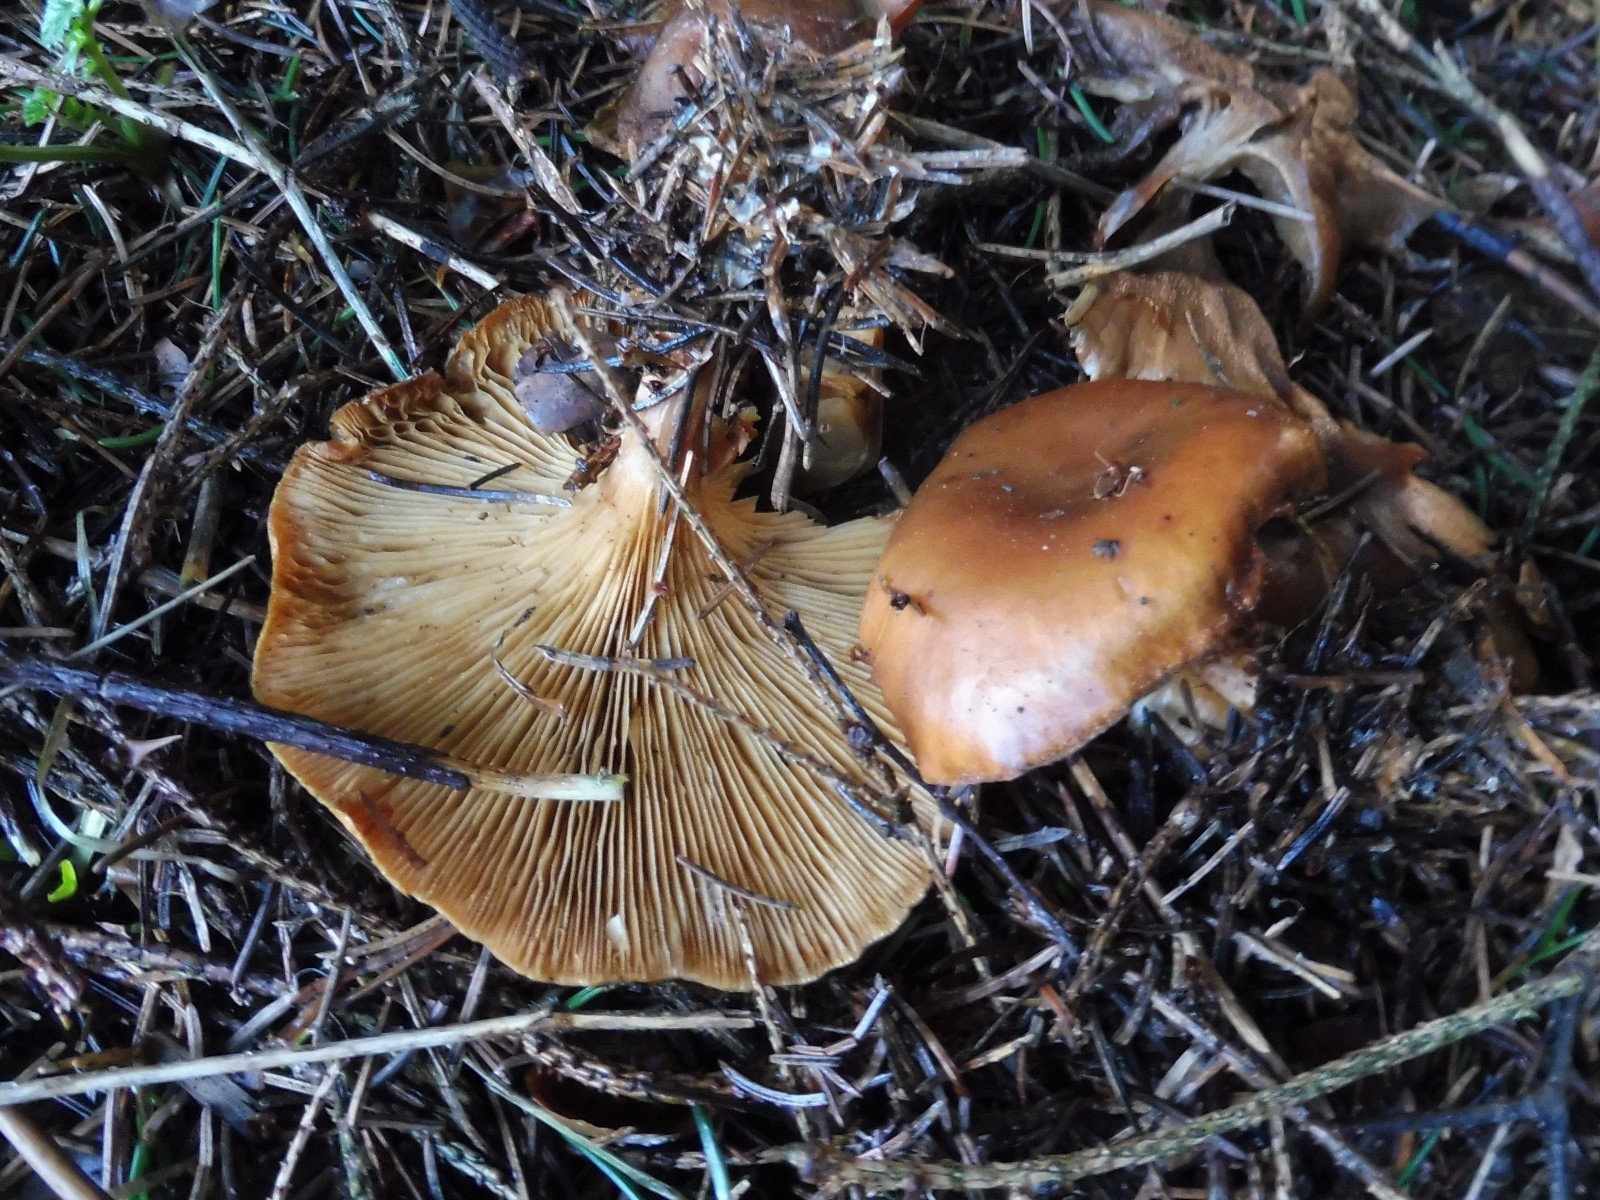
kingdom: Fungi
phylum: Basidiomycota
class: Agaricomycetes
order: Agaricales
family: Tricholomataceae
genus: Paralepista
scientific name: Paralepista flaccida
